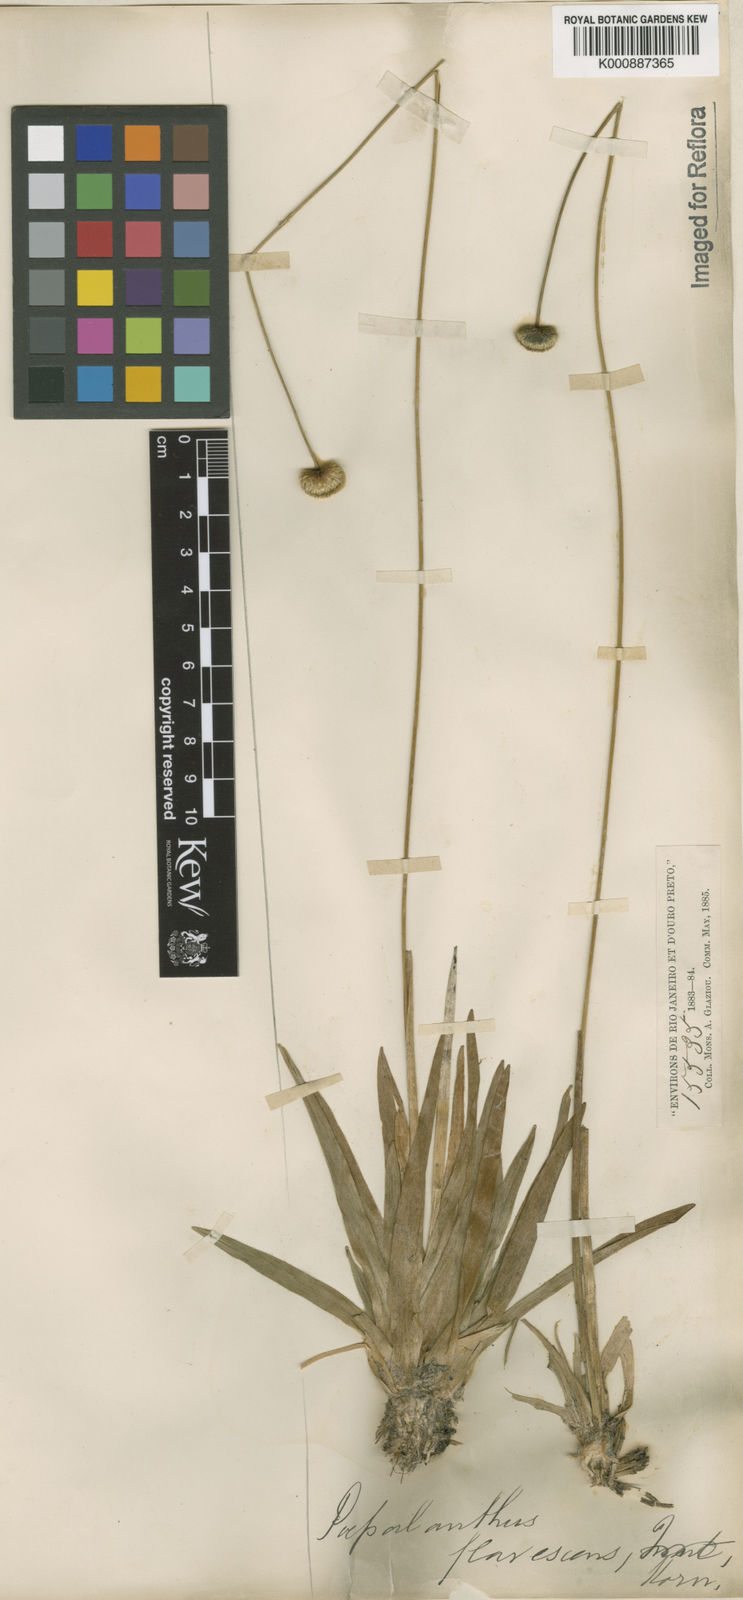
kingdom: Plantae
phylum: Tracheophyta
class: Liliopsida
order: Poales
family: Eriocaulaceae
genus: Leiothrix
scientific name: Leiothrix flavescens
